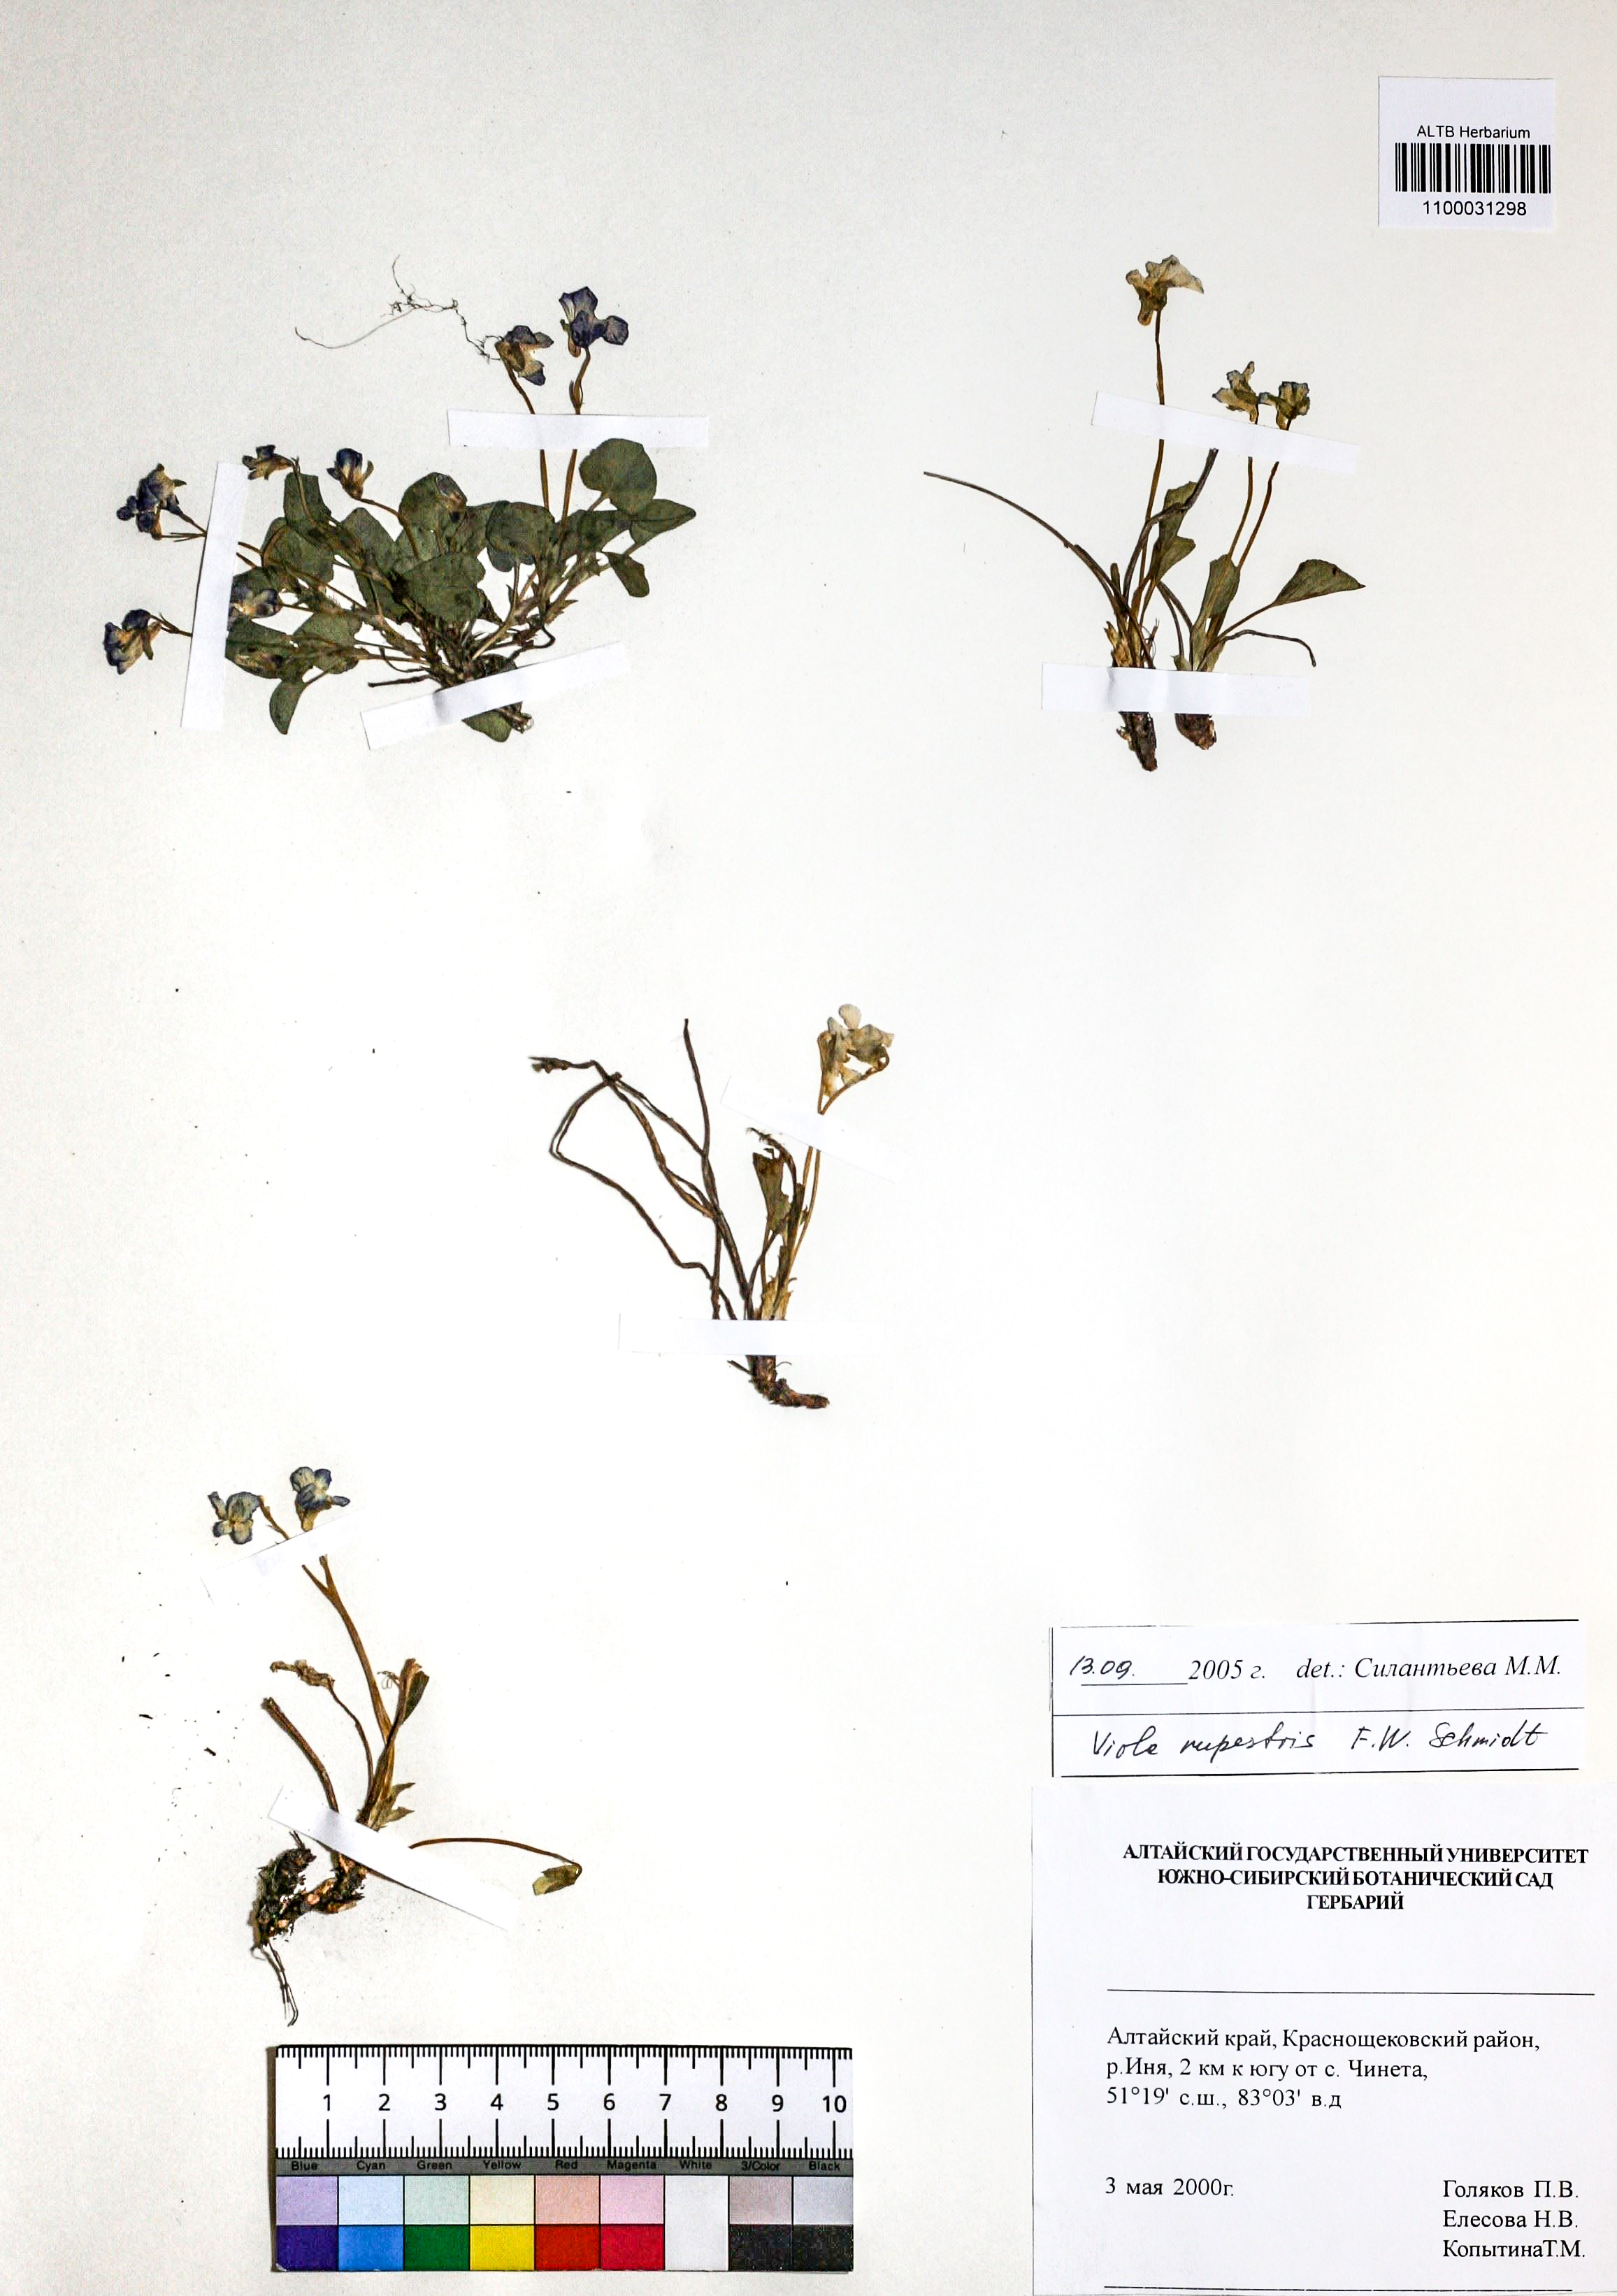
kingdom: Plantae
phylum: Tracheophyta
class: Magnoliopsida
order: Malpighiales
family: Violaceae
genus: Viola
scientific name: Viola rupestris
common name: Teesdale violet
